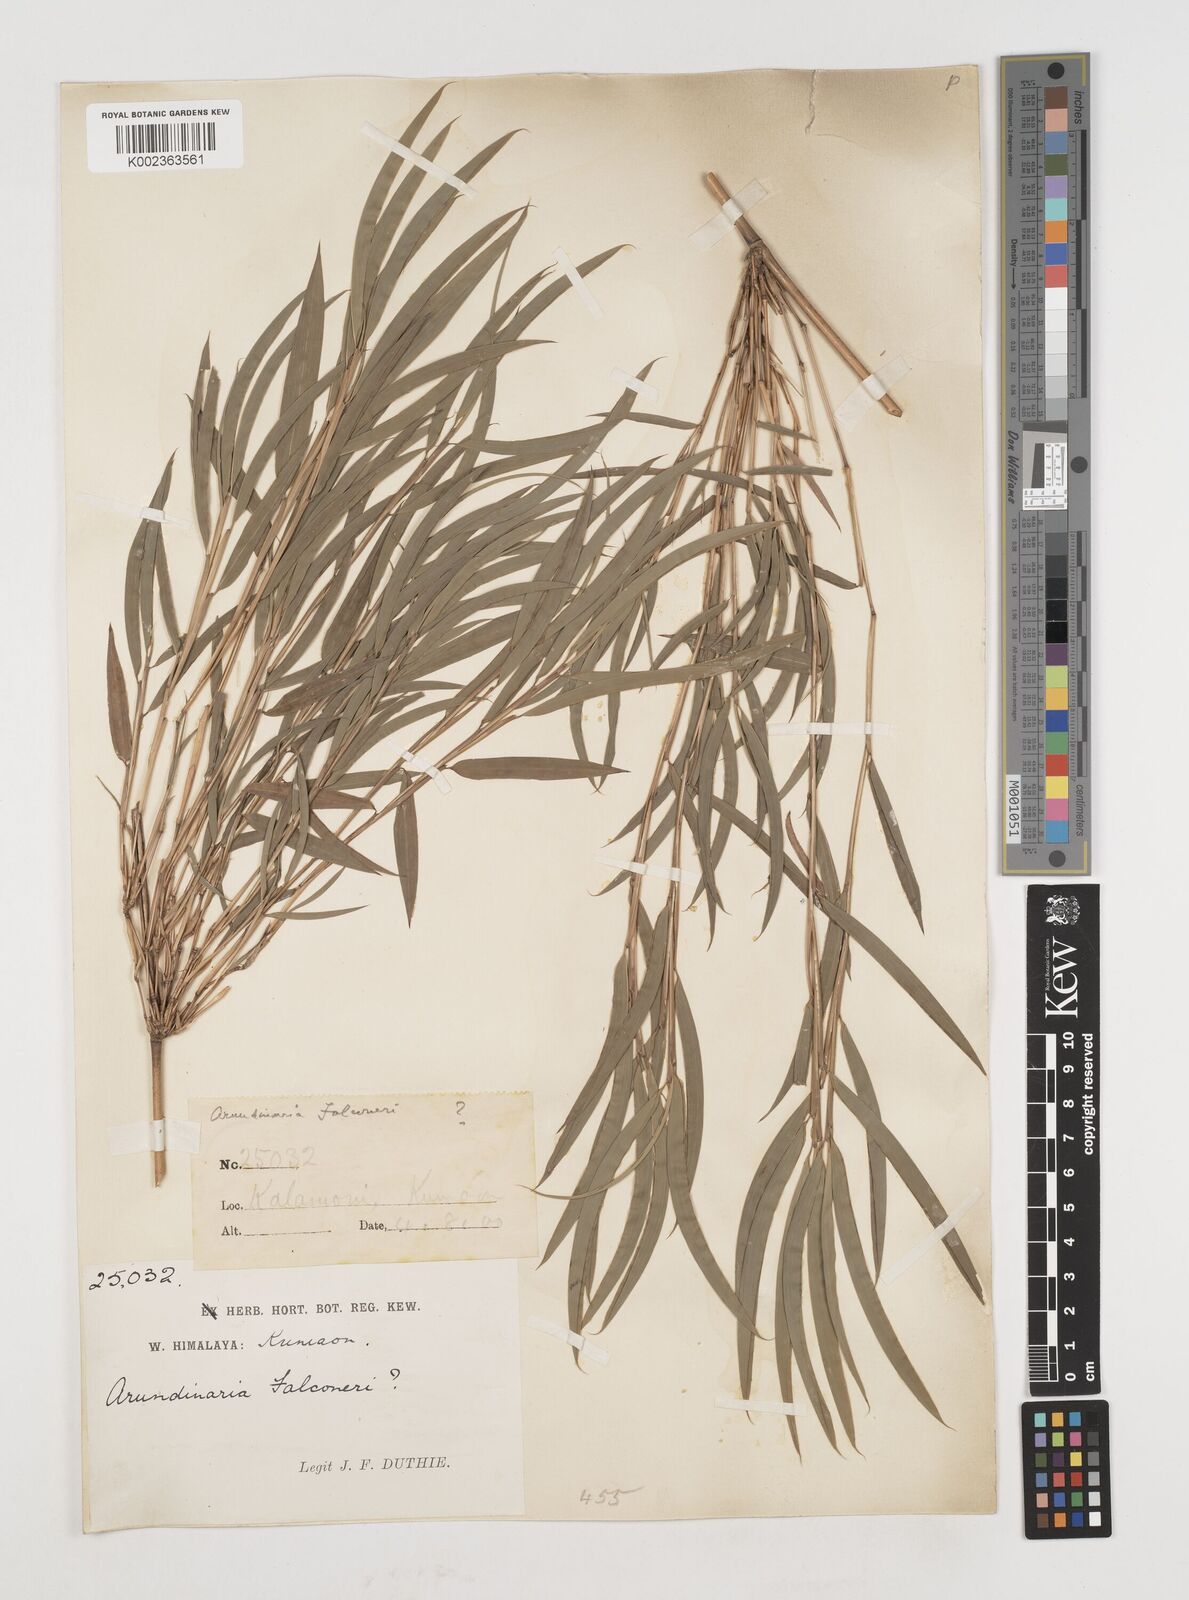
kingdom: Plantae
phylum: Tracheophyta
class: Liliopsida
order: Poales
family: Poaceae
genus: Himalayacalamus
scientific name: Himalayacalamus falconeri
